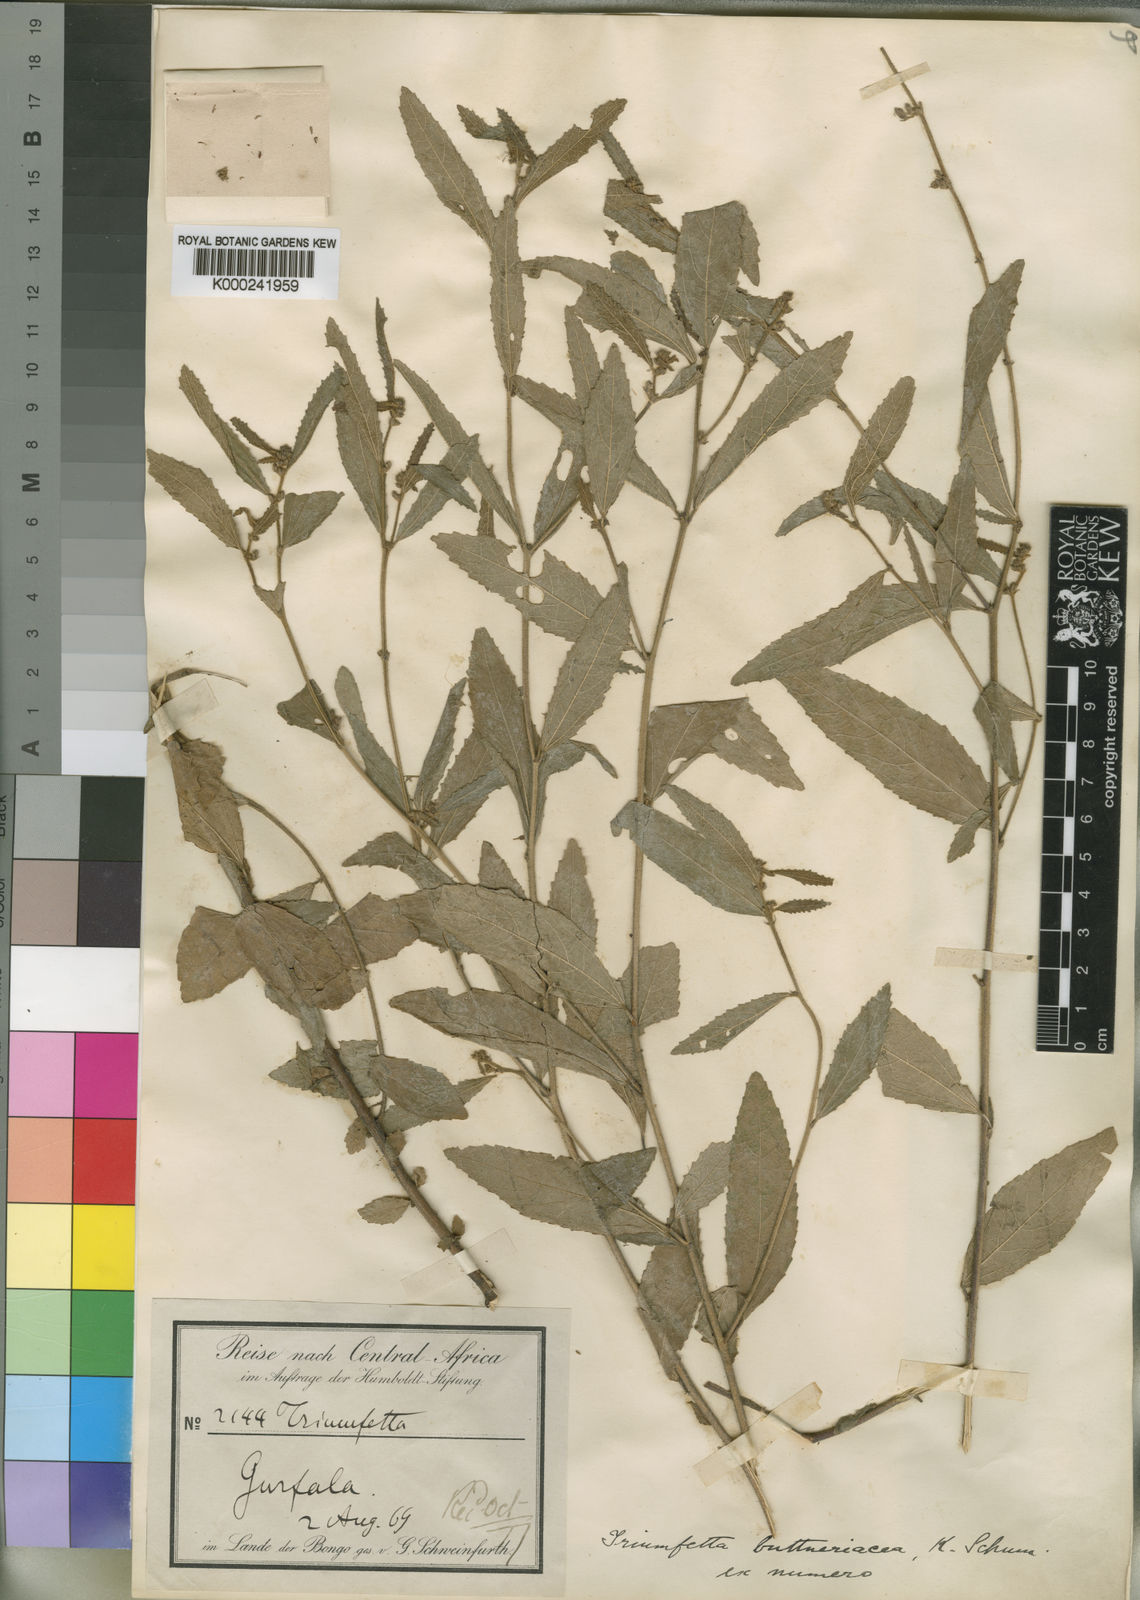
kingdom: Plantae
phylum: Tracheophyta
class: Magnoliopsida
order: Malvales
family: Malvaceae
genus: Triumfetta
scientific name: Triumfetta
